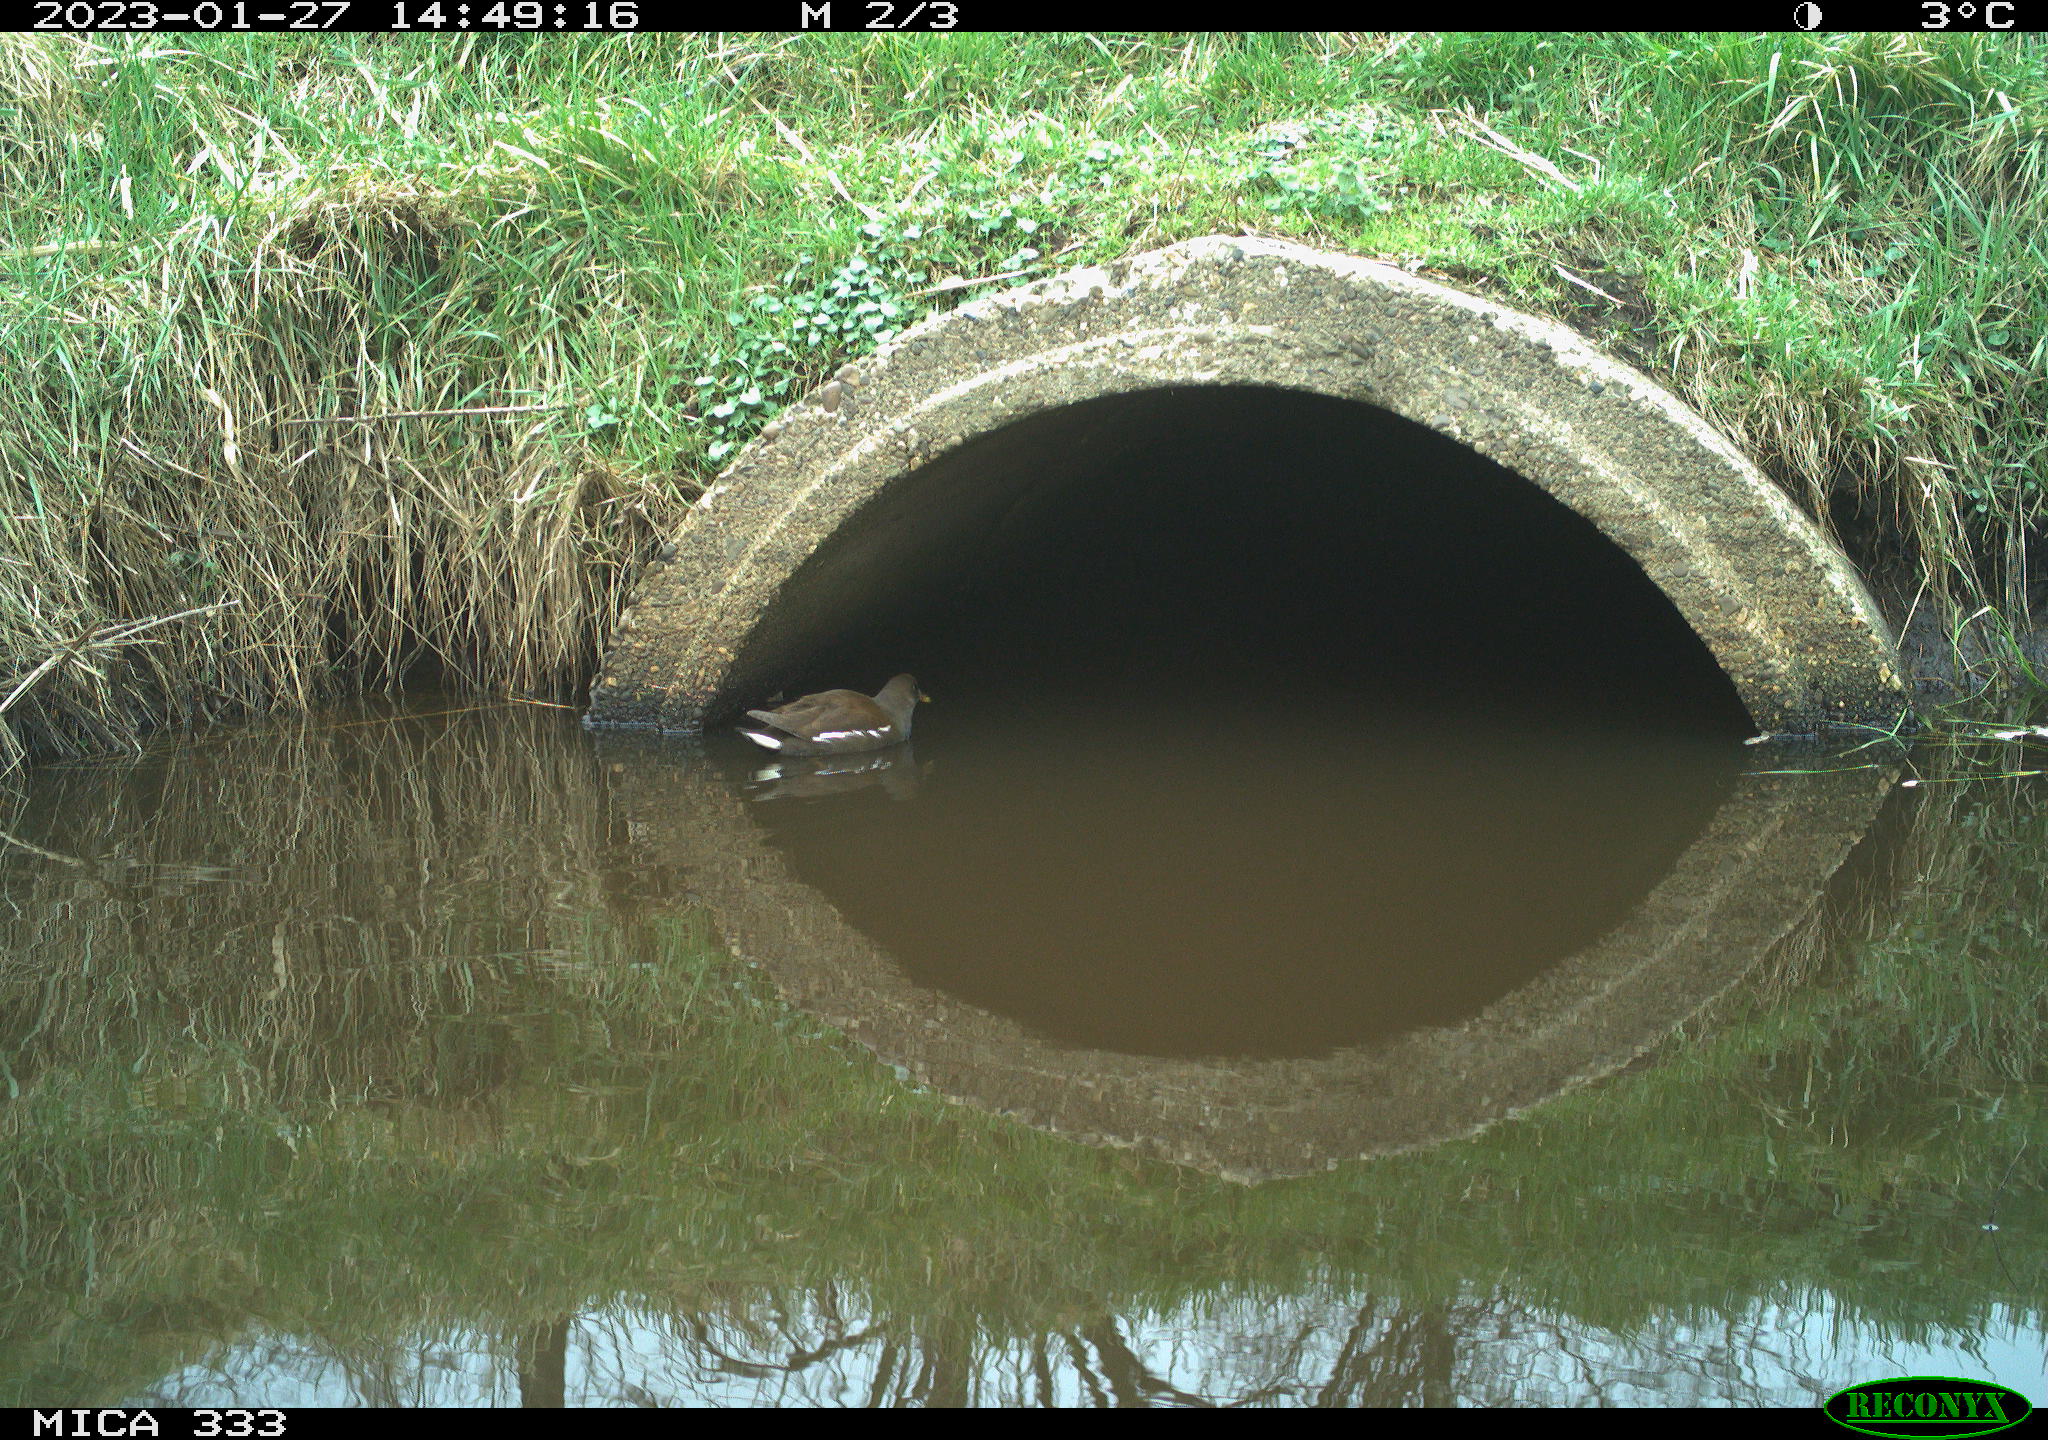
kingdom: Animalia
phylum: Chordata
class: Aves
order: Gruiformes
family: Rallidae
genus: Gallinula
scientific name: Gallinula chloropus
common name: Common moorhen
